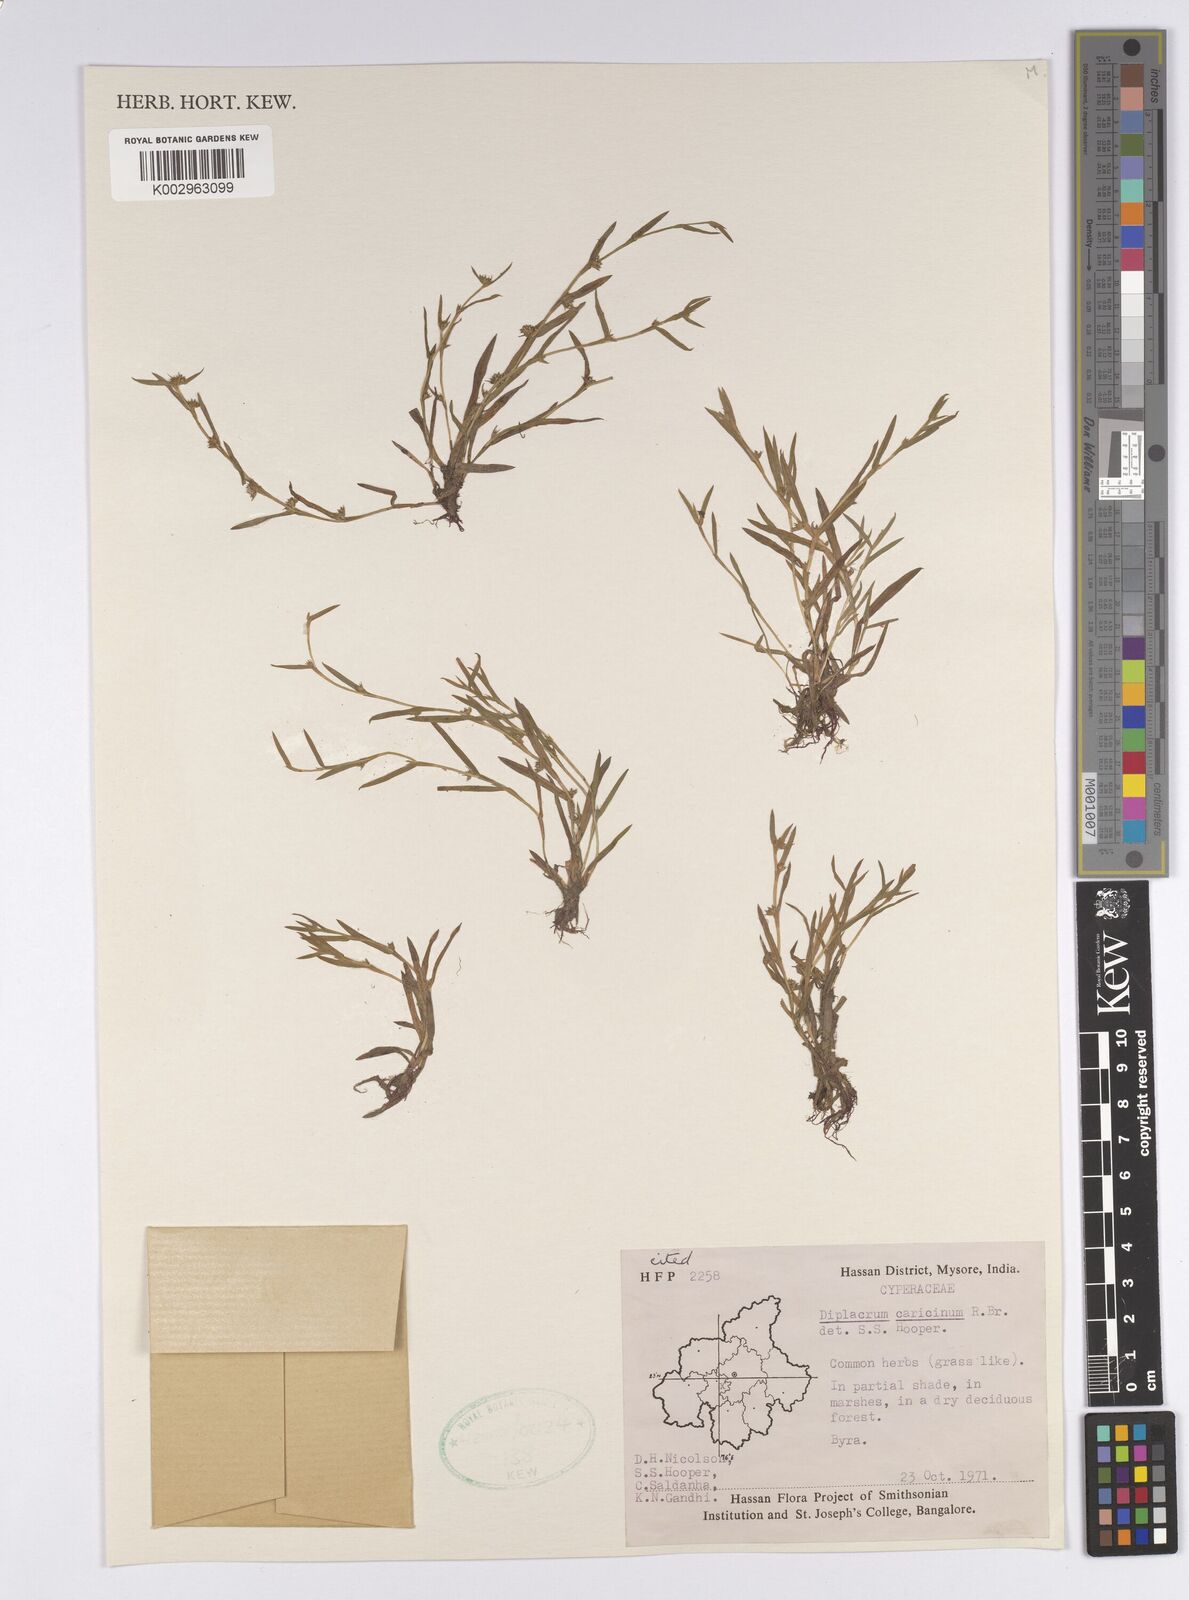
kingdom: Plantae
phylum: Tracheophyta
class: Liliopsida
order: Poales
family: Cyperaceae
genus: Diplacrum
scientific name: Diplacrum caricinum
